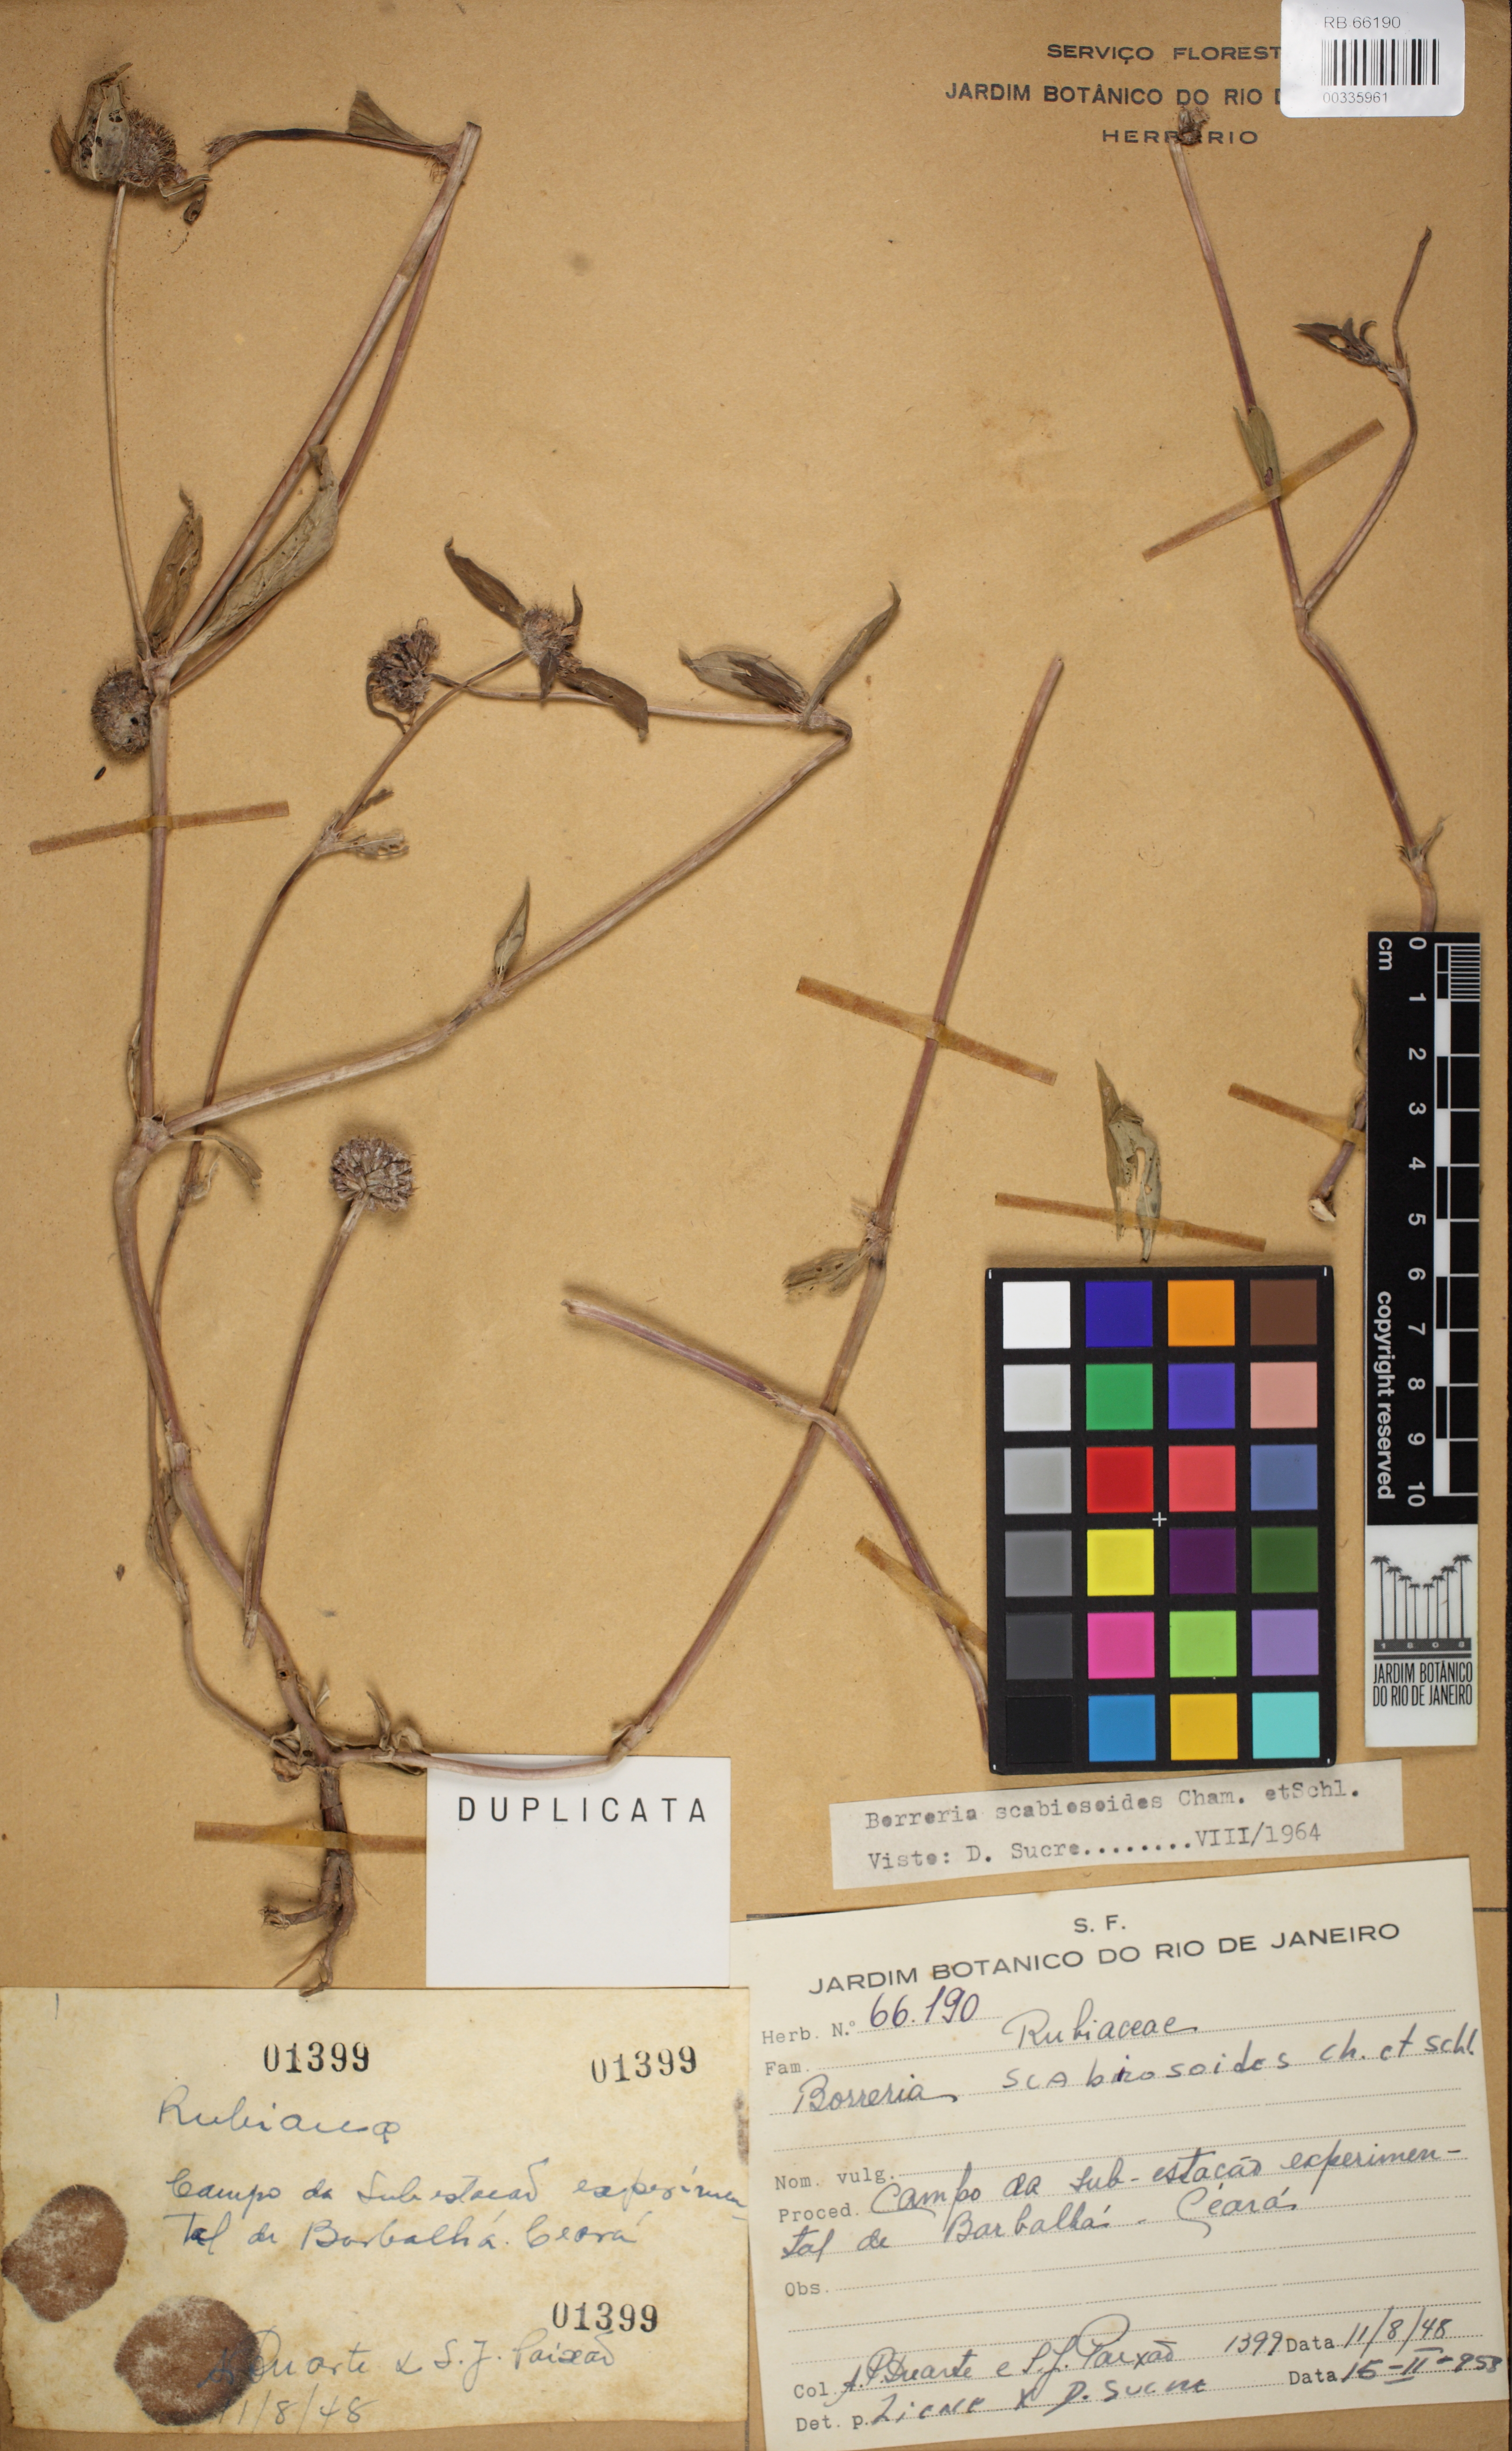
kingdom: Plantae
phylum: Tracheophyta
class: Magnoliopsida
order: Gentianales
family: Rubiaceae
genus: Spermacoce
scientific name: Spermacoce scabiosoides
